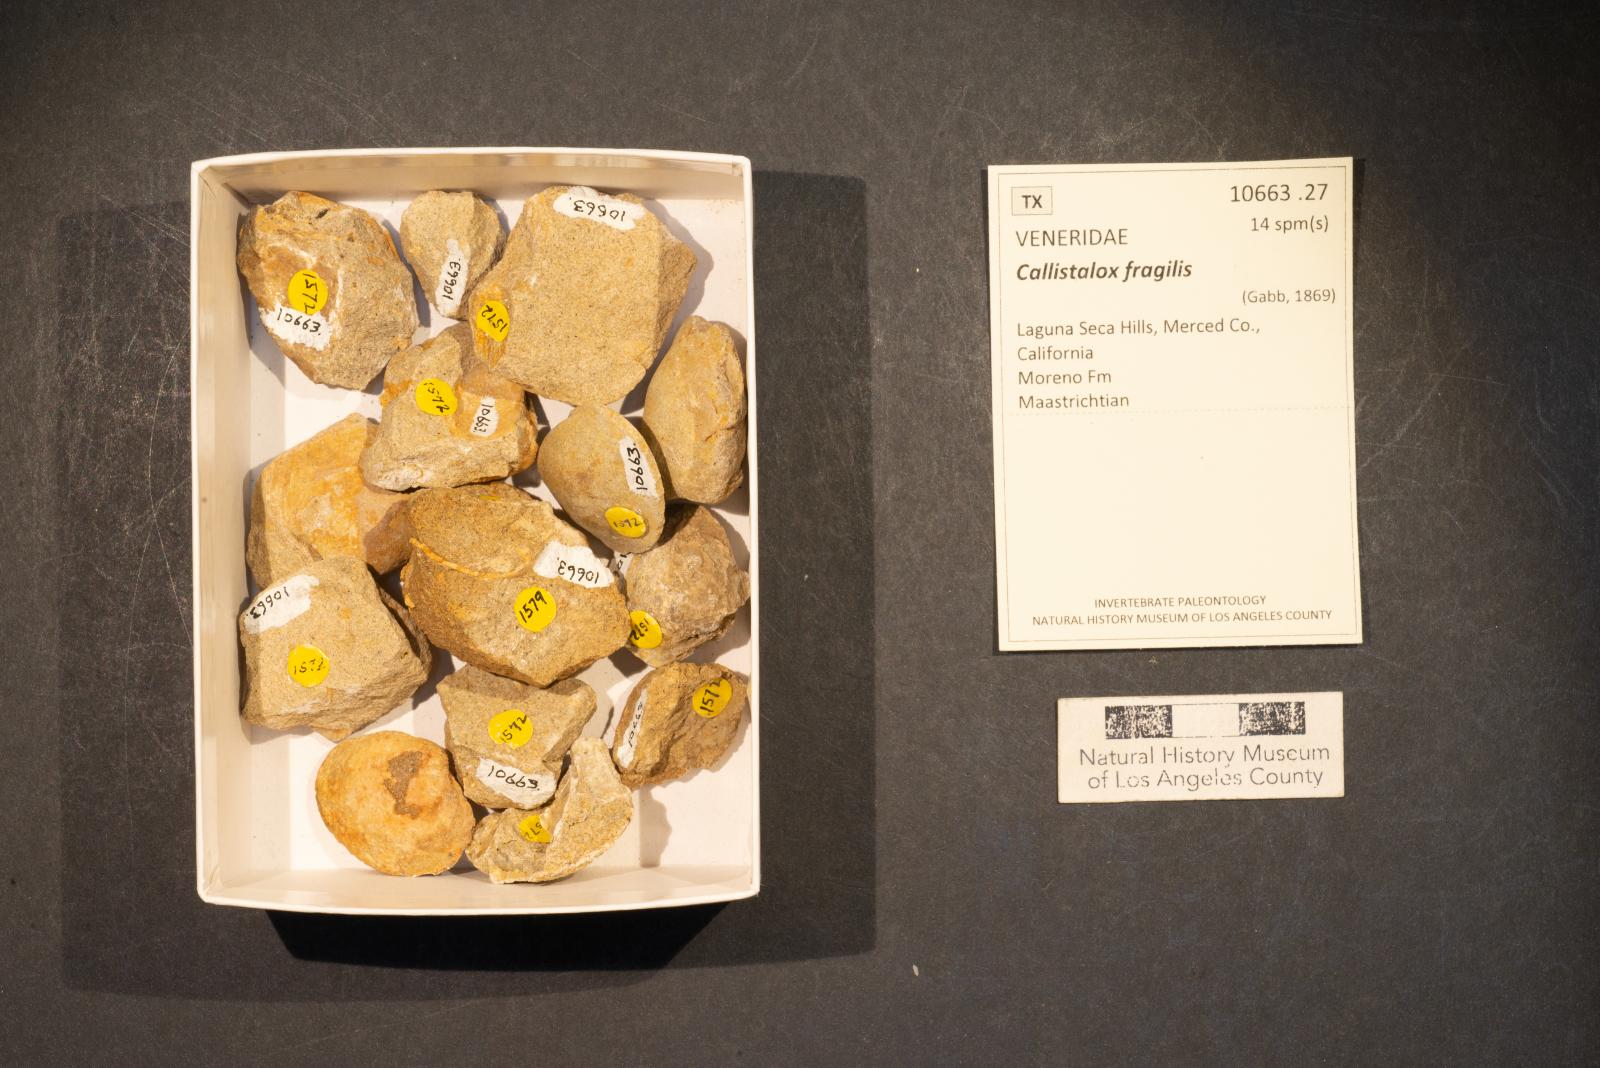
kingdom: Animalia
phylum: Mollusca
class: Bivalvia
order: Venerida
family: Veneridae
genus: Callistalox
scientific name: Callistalox Meretrix fragilis
